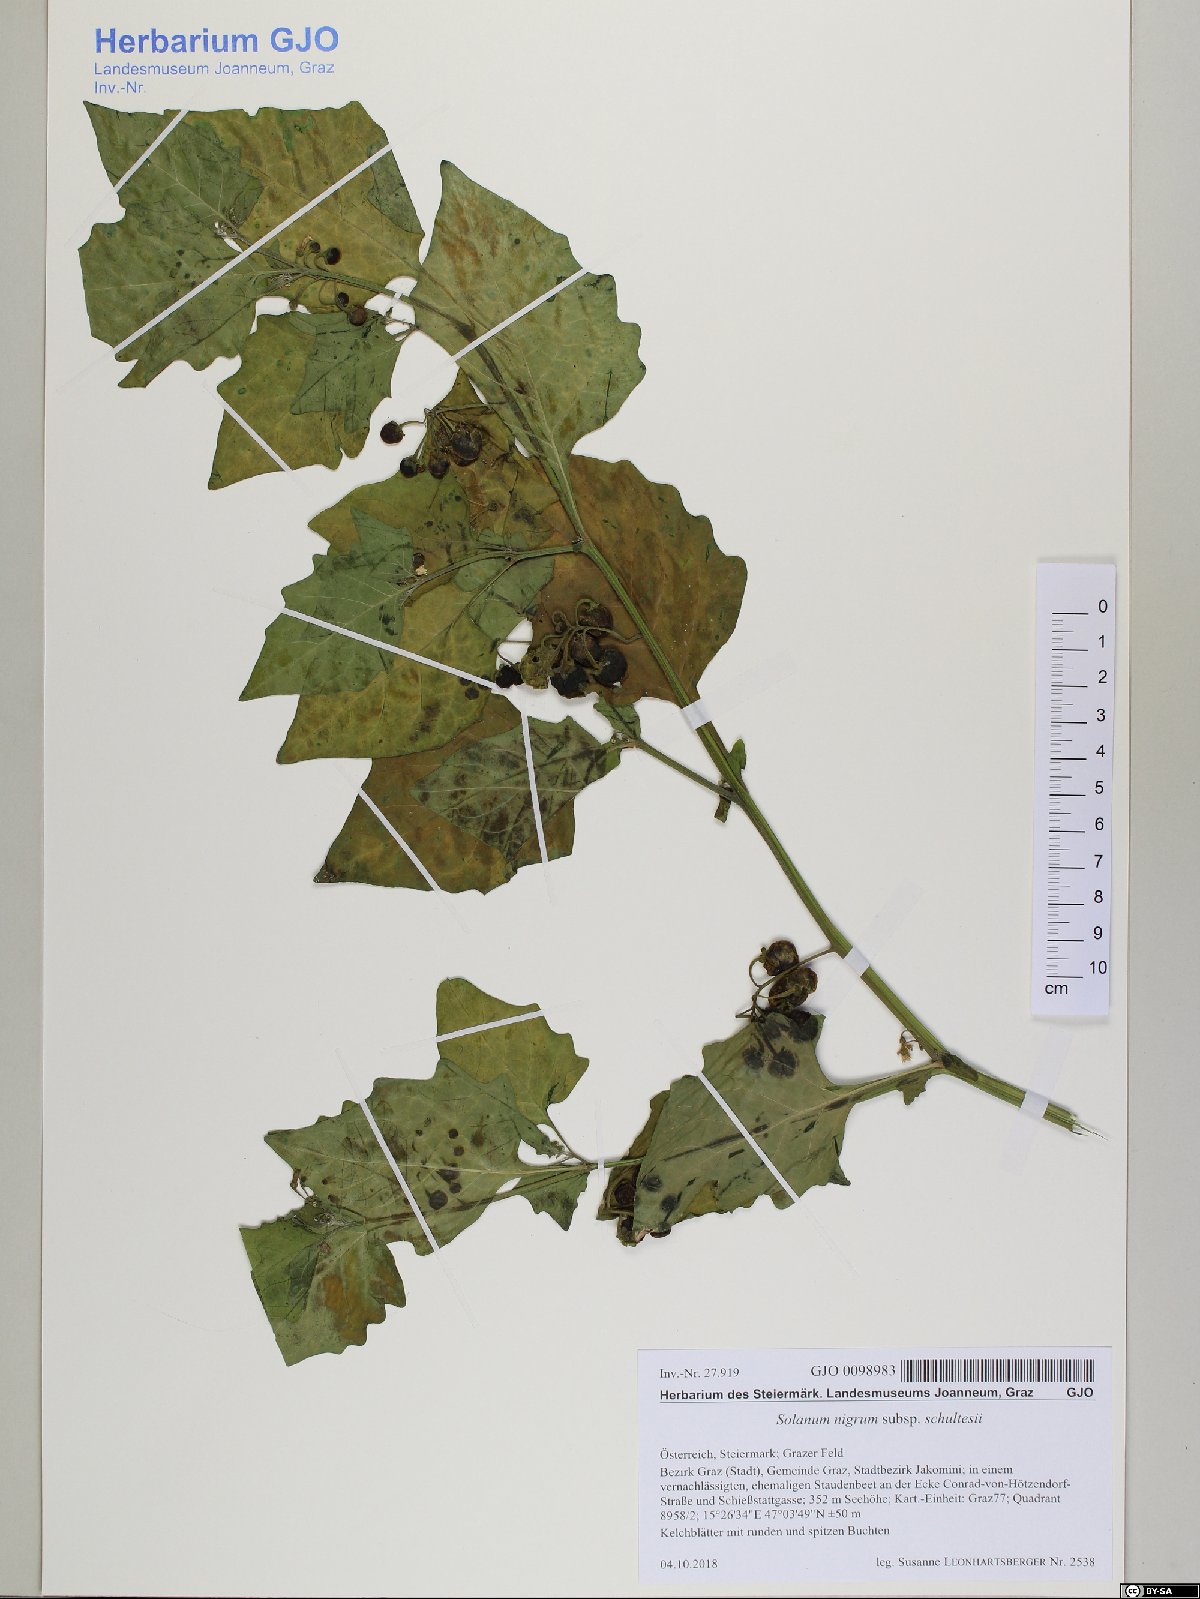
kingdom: Plantae
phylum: Tracheophyta
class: Magnoliopsida
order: Solanales
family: Solanaceae
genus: Solanum
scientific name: Solanum decipiens
